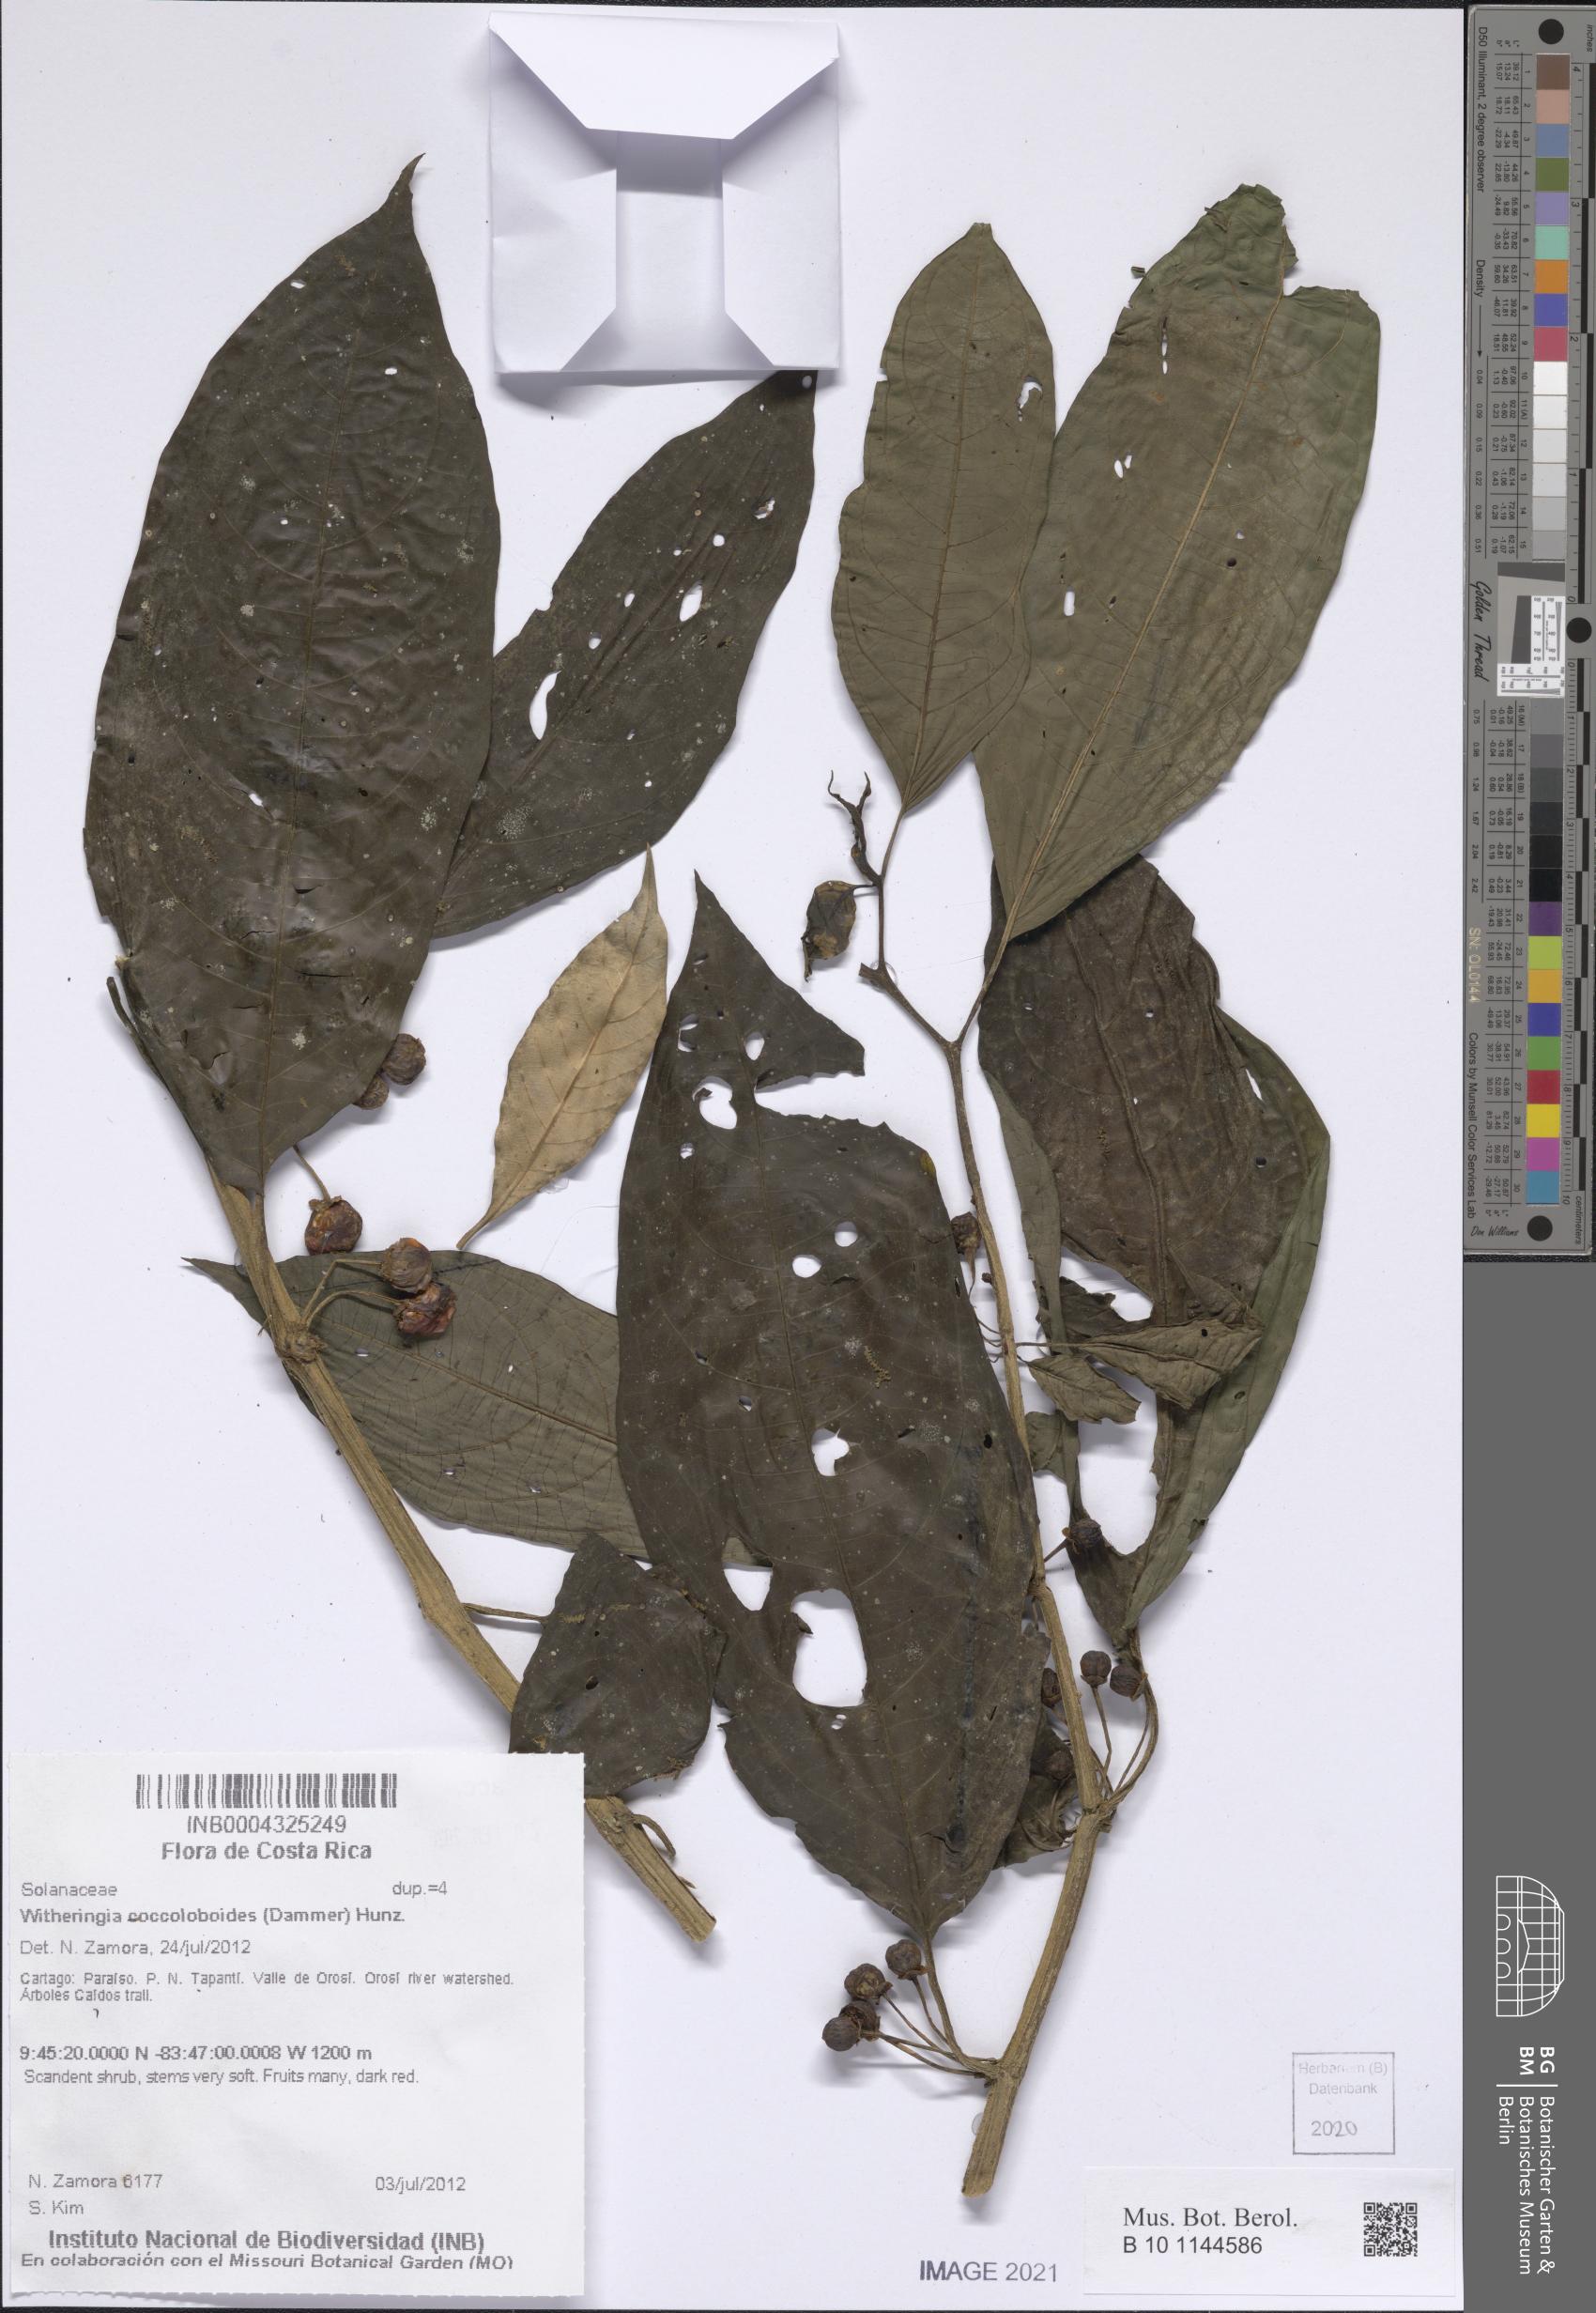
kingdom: Plantae
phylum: Tracheophyta
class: Magnoliopsida
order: Solanales
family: Solanaceae
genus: Witheringia
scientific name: Witheringia coccoloboides
